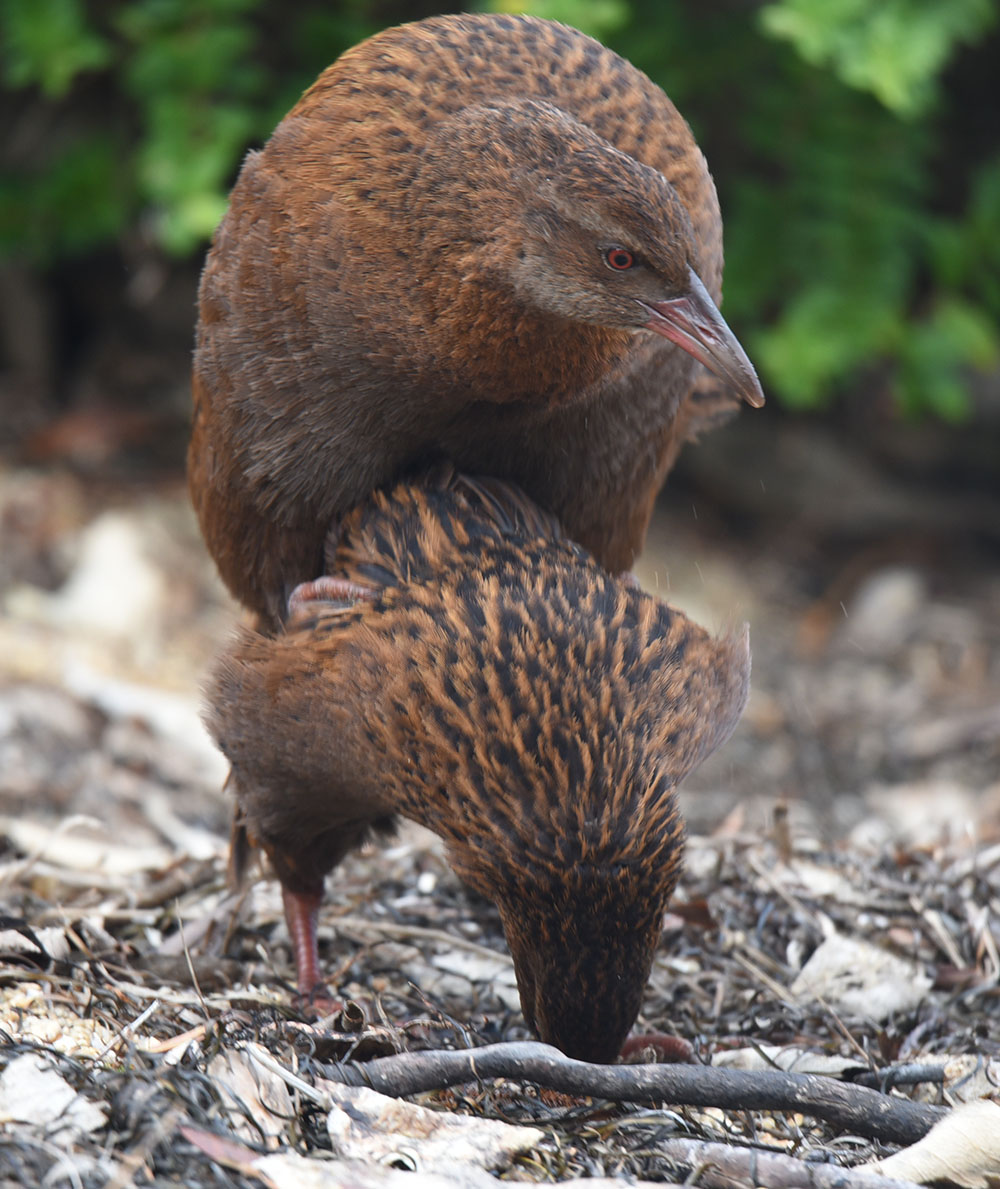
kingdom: Animalia
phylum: Chordata
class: Aves
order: Gruiformes
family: Rallidae
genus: Gallirallus
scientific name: Gallirallus australis
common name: Weka
